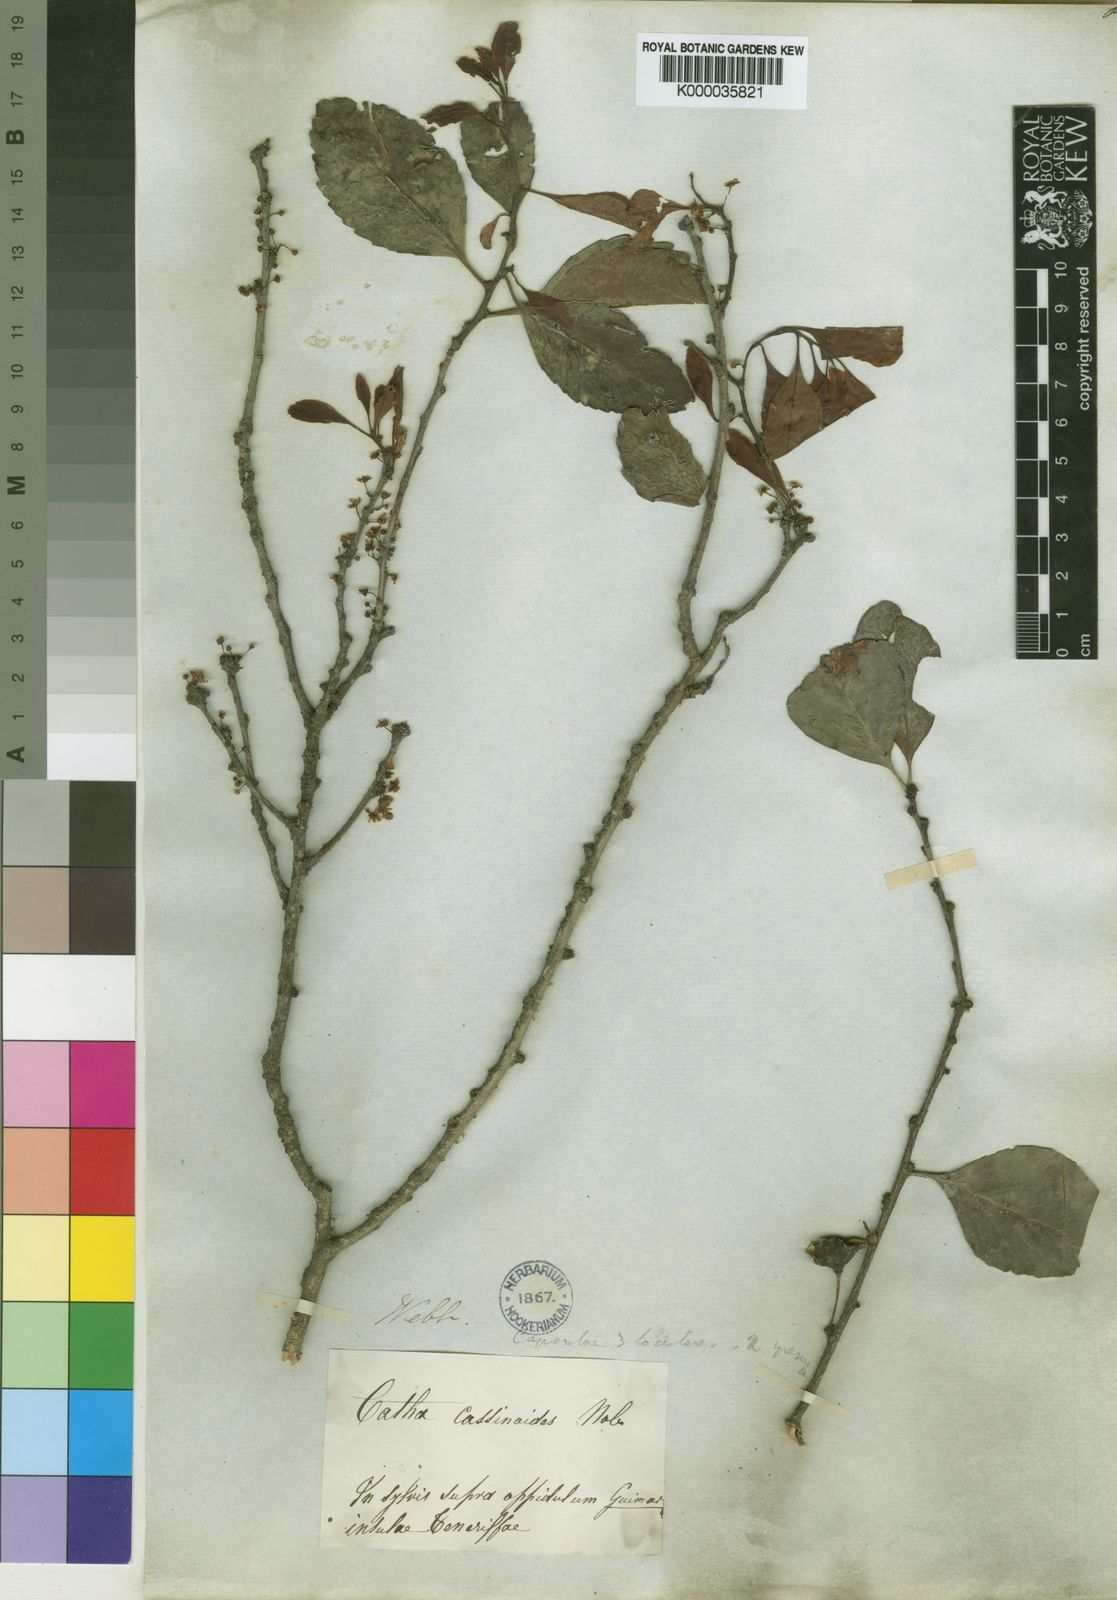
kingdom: Plantae
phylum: Tracheophyta
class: Magnoliopsida
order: Celastrales
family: Celastraceae
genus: Gymnosporia
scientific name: Gymnosporia
